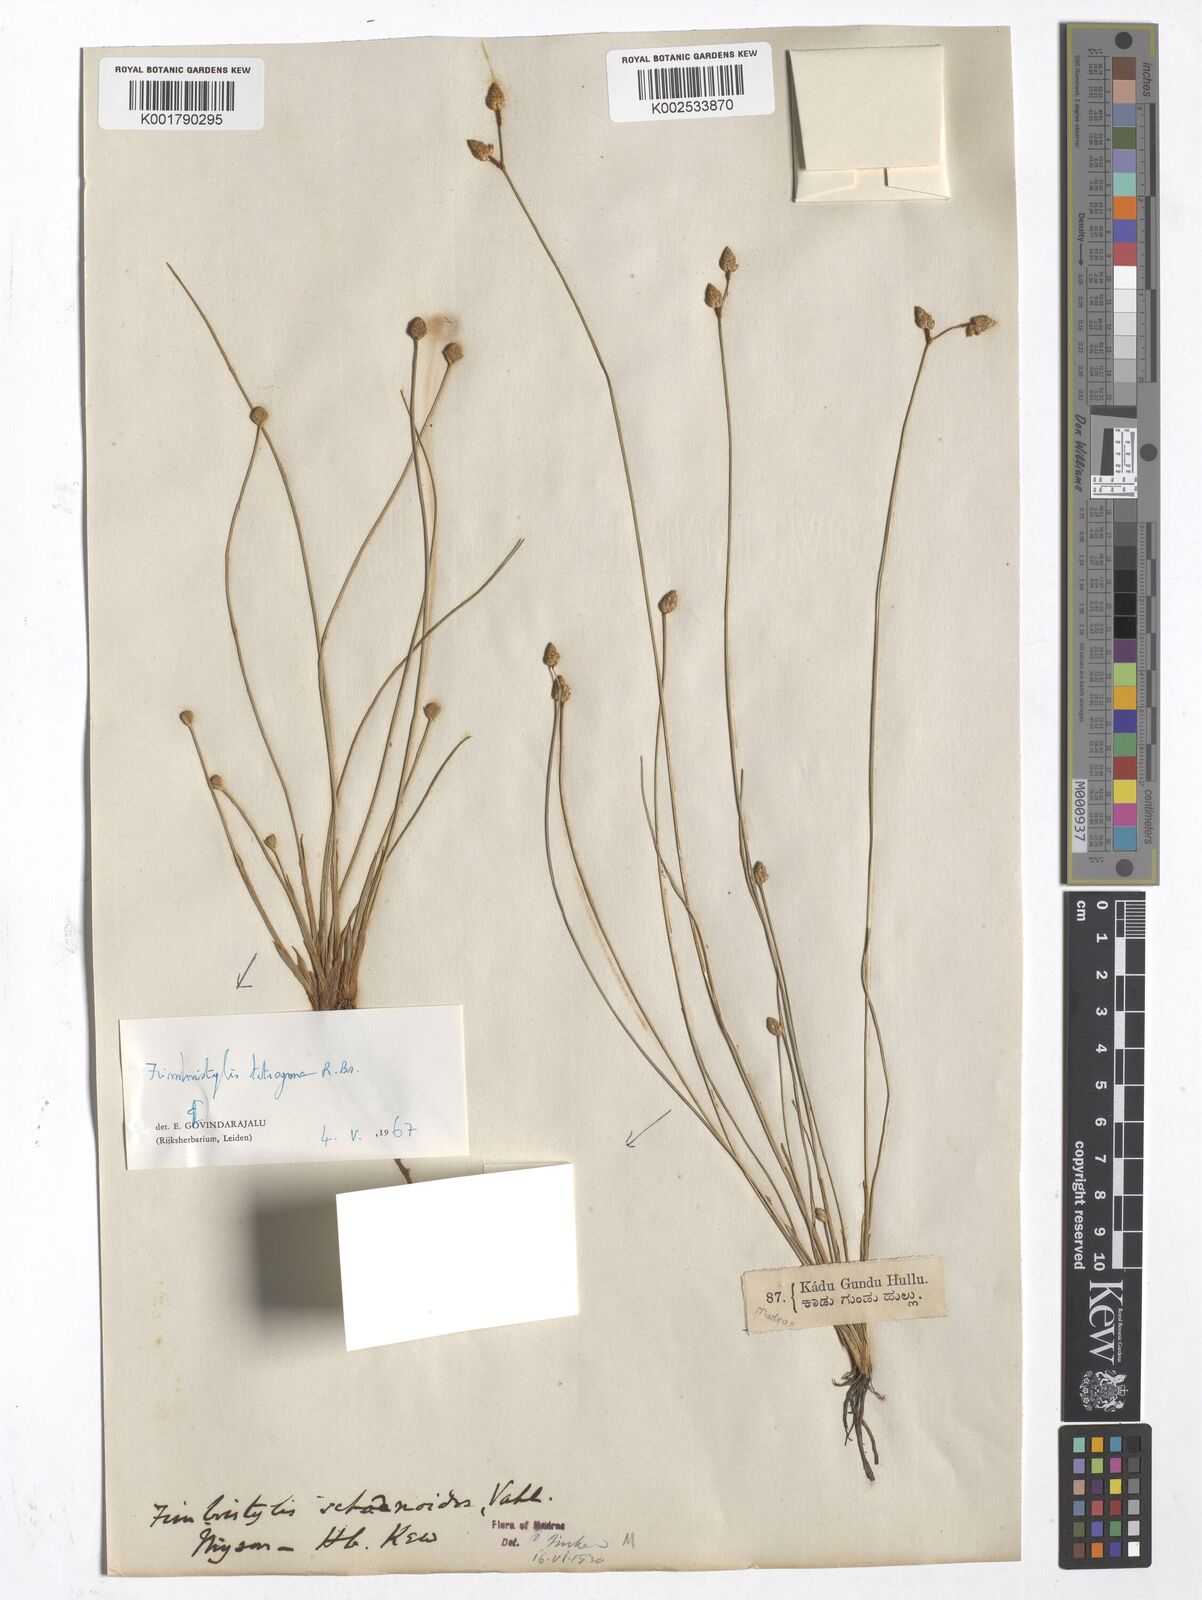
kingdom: Plantae
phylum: Tracheophyta
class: Liliopsida
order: Poales
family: Cyperaceae
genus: Fimbristylis
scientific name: Fimbristylis schoenoides
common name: Ditch fimbry
